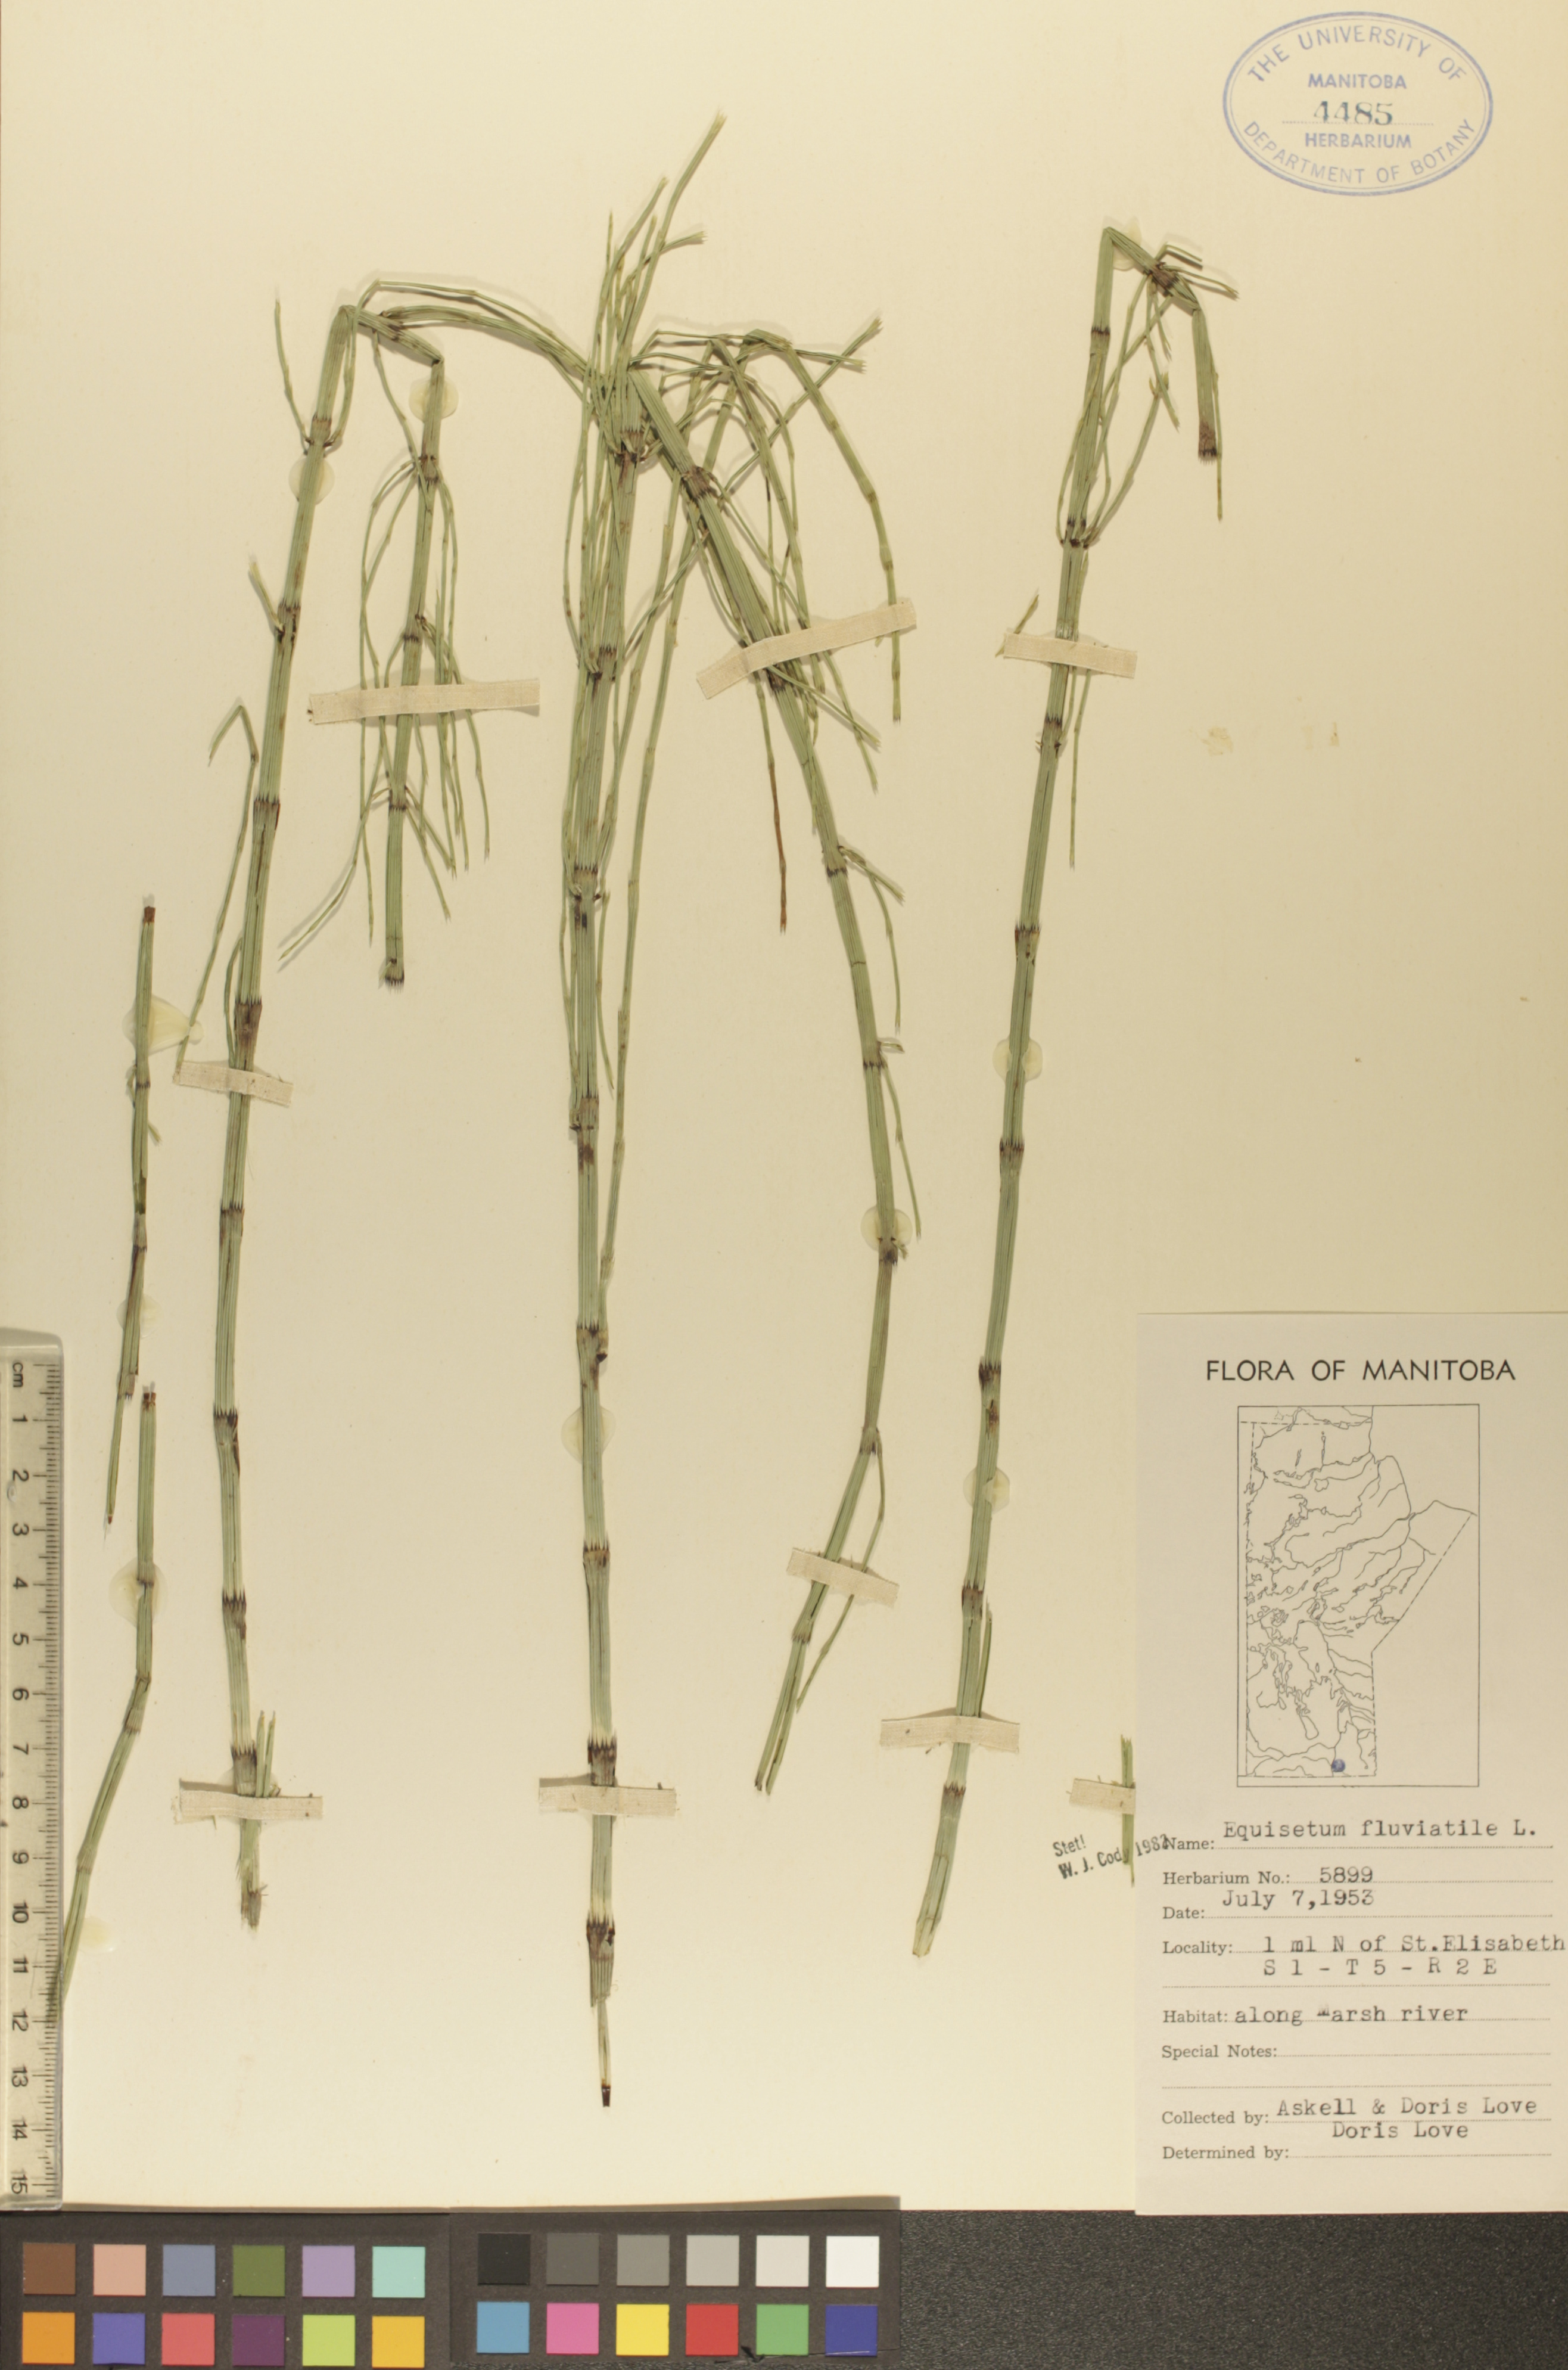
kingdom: Plantae
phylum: Tracheophyta
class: Polypodiopsida
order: Equisetales
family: Equisetaceae
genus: Equisetum
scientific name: Equisetum fluviatile
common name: Water horsetail
